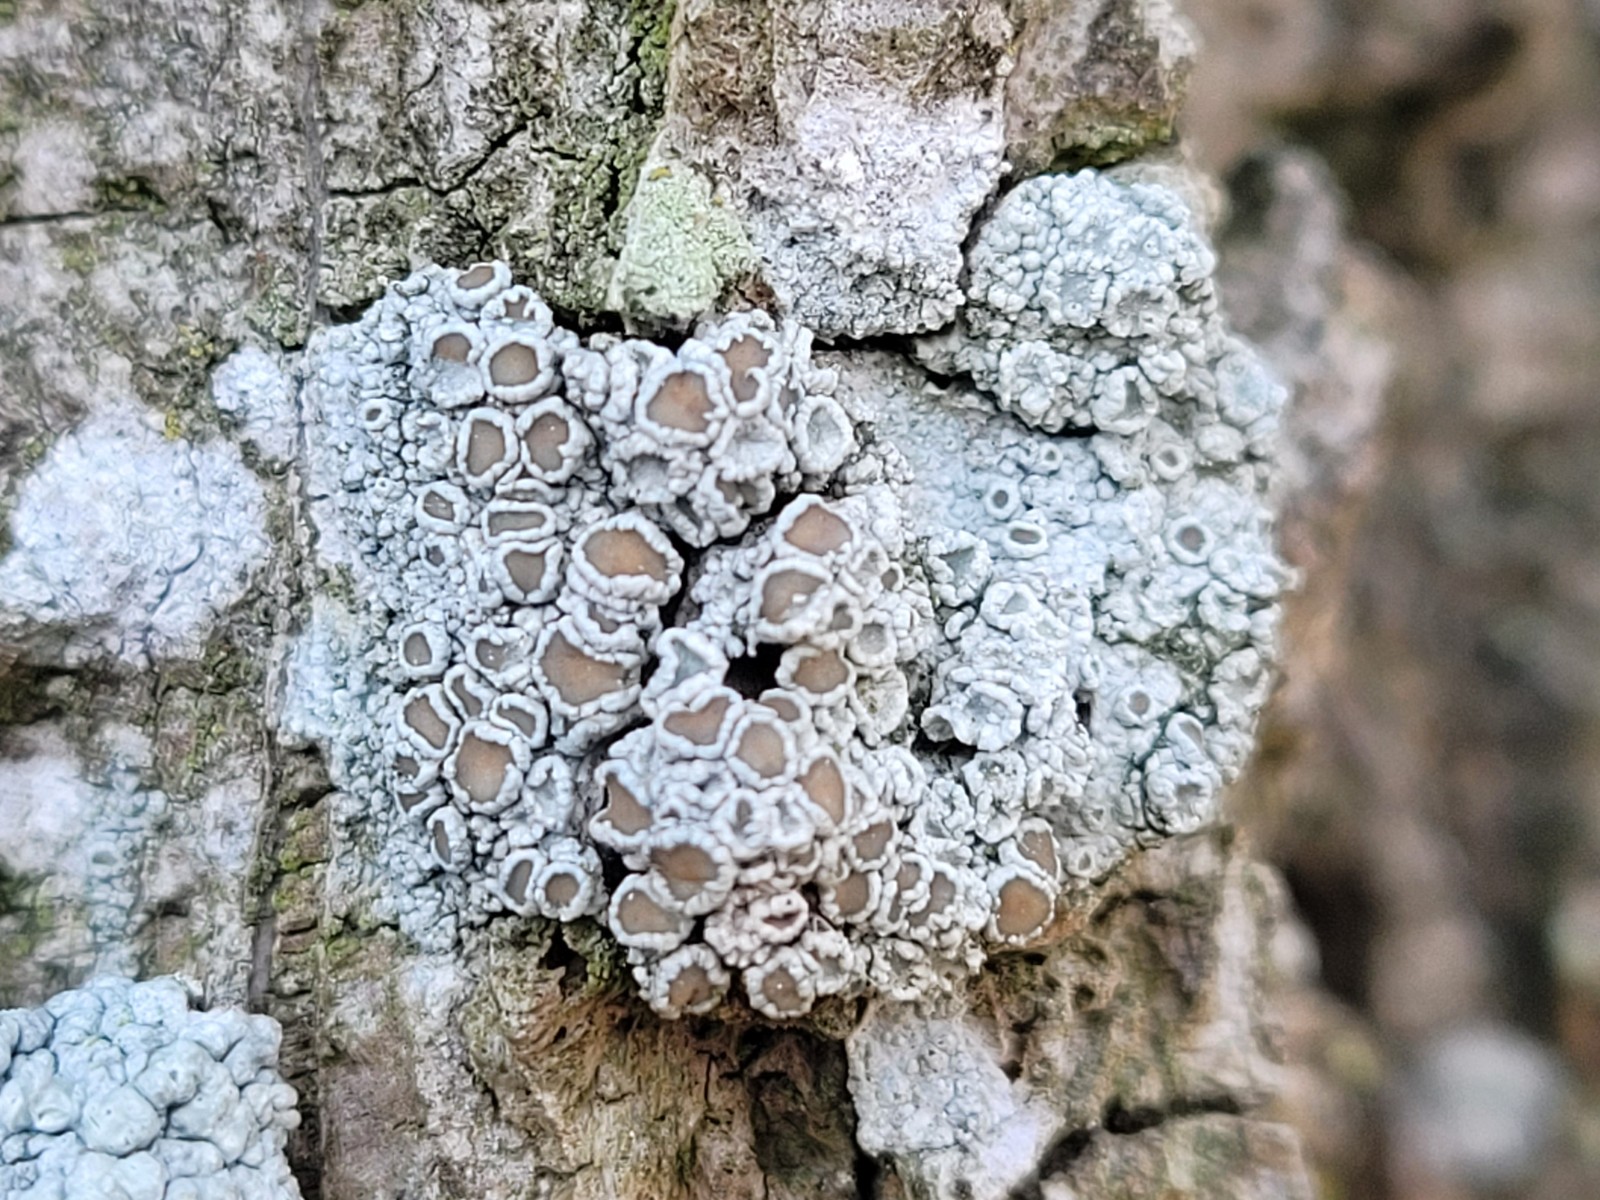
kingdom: Fungi
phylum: Ascomycota
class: Lecanoromycetes
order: Lecanorales
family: Lecanoraceae
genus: Lecanora
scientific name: Lecanora chlarotera
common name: brun kantskivelav
